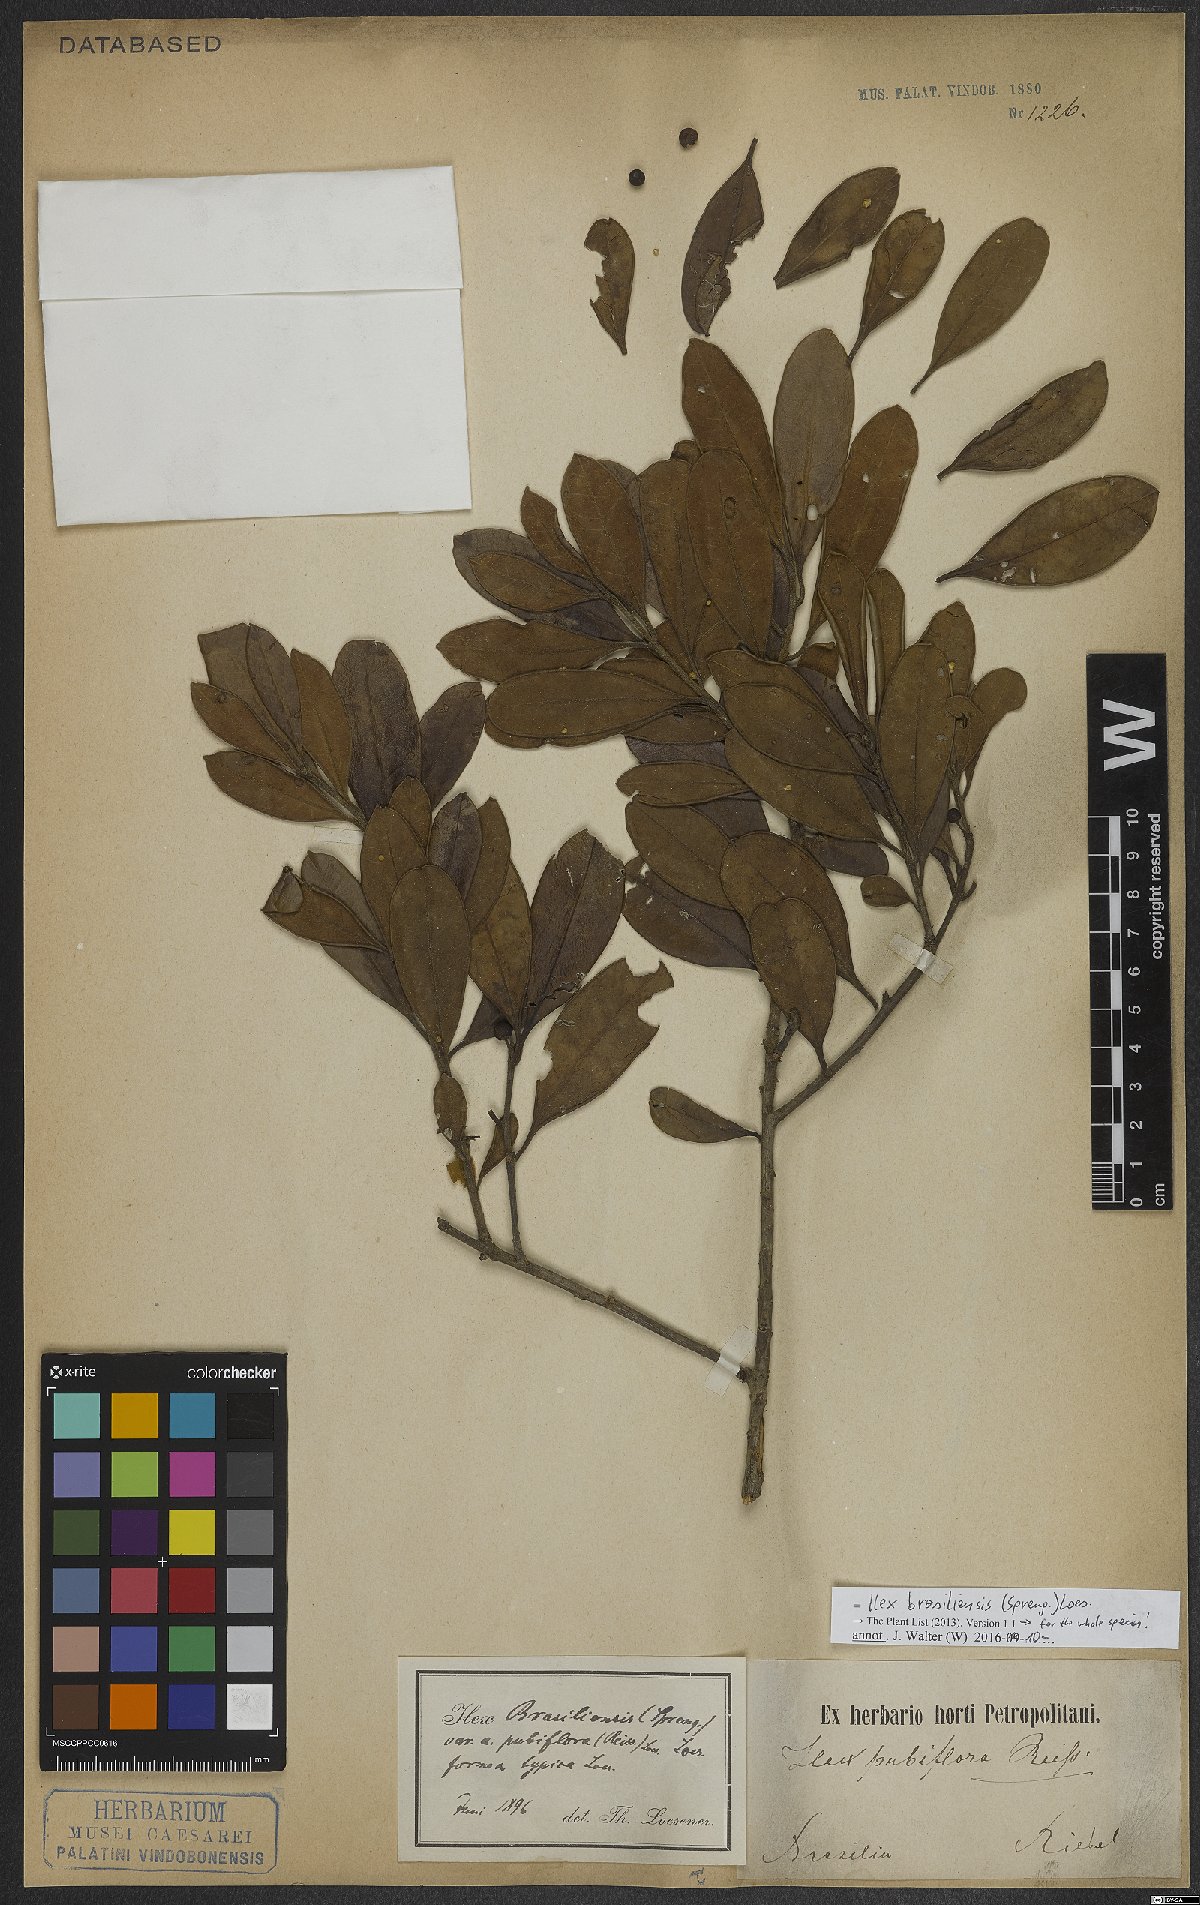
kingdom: Plantae
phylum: Tracheophyta
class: Magnoliopsida
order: Aquifoliales
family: Aquifoliaceae
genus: Ilex
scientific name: Ilex brasiliensis
